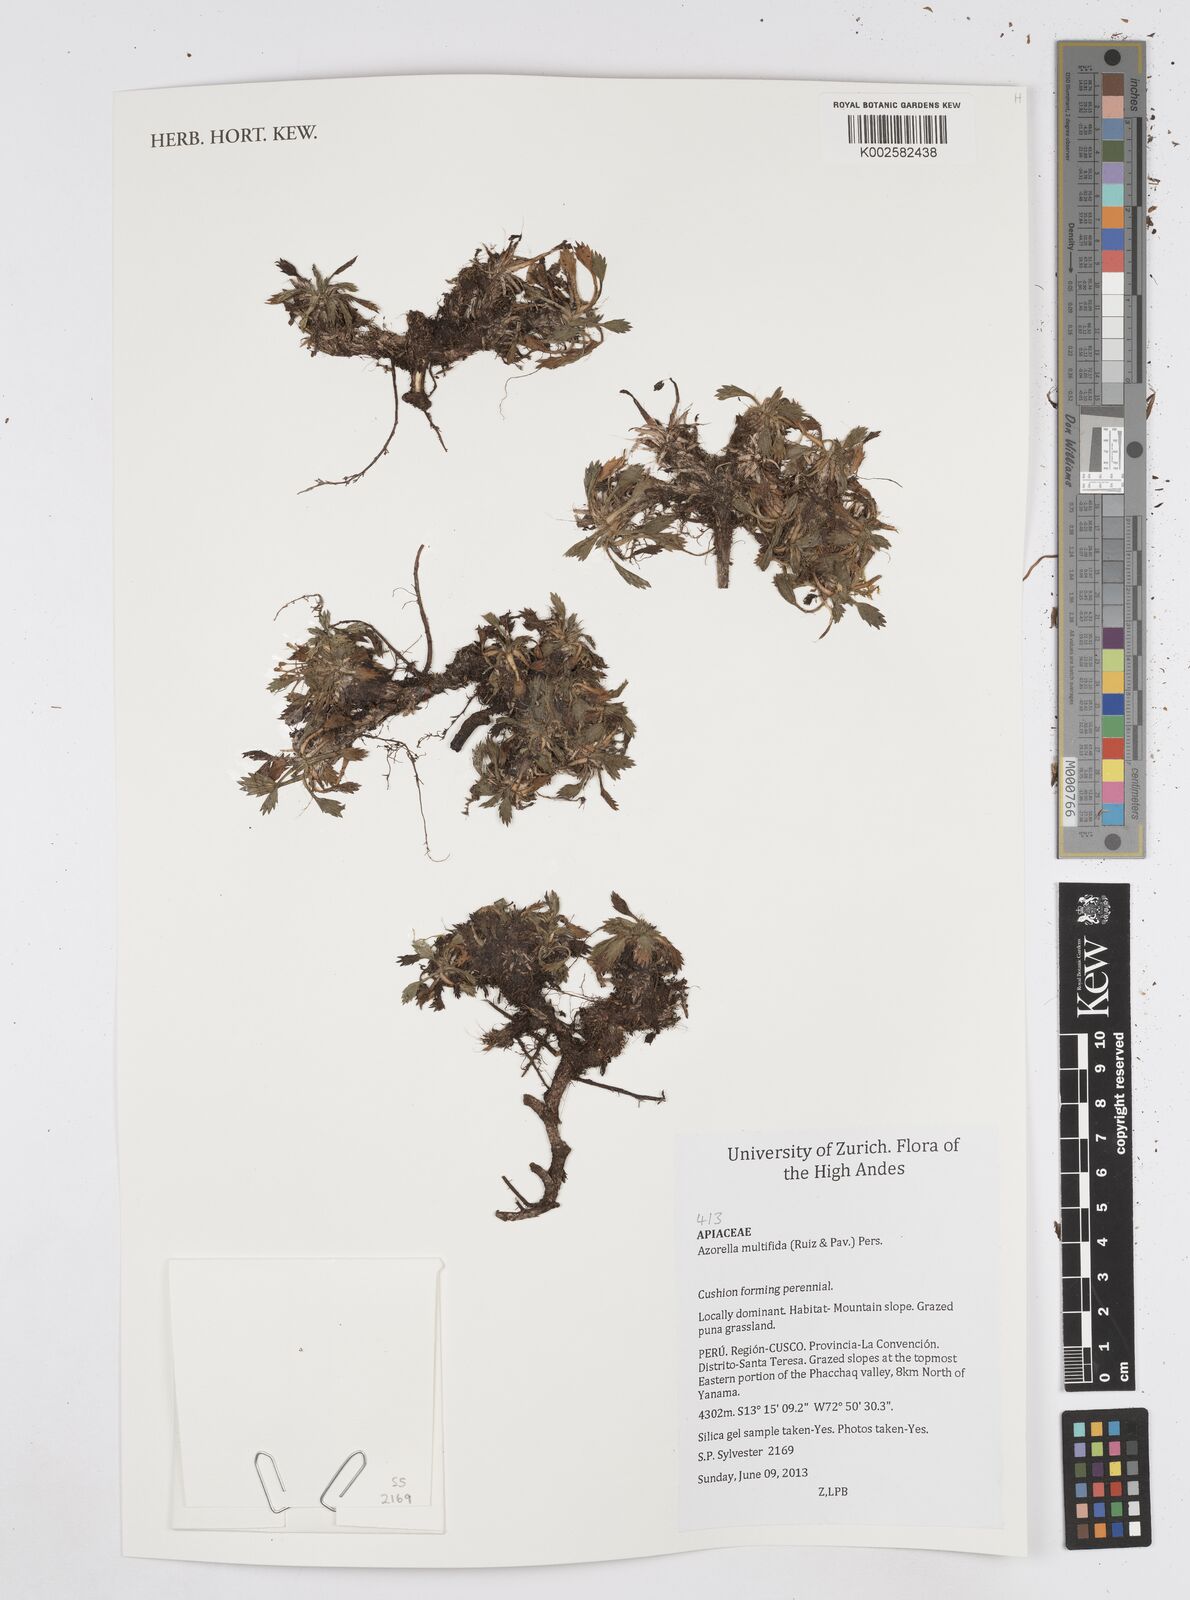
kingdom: Plantae
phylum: Tracheophyta
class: Magnoliopsida
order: Apiales
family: Apiaceae
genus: Azorella
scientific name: Azorella multifida
